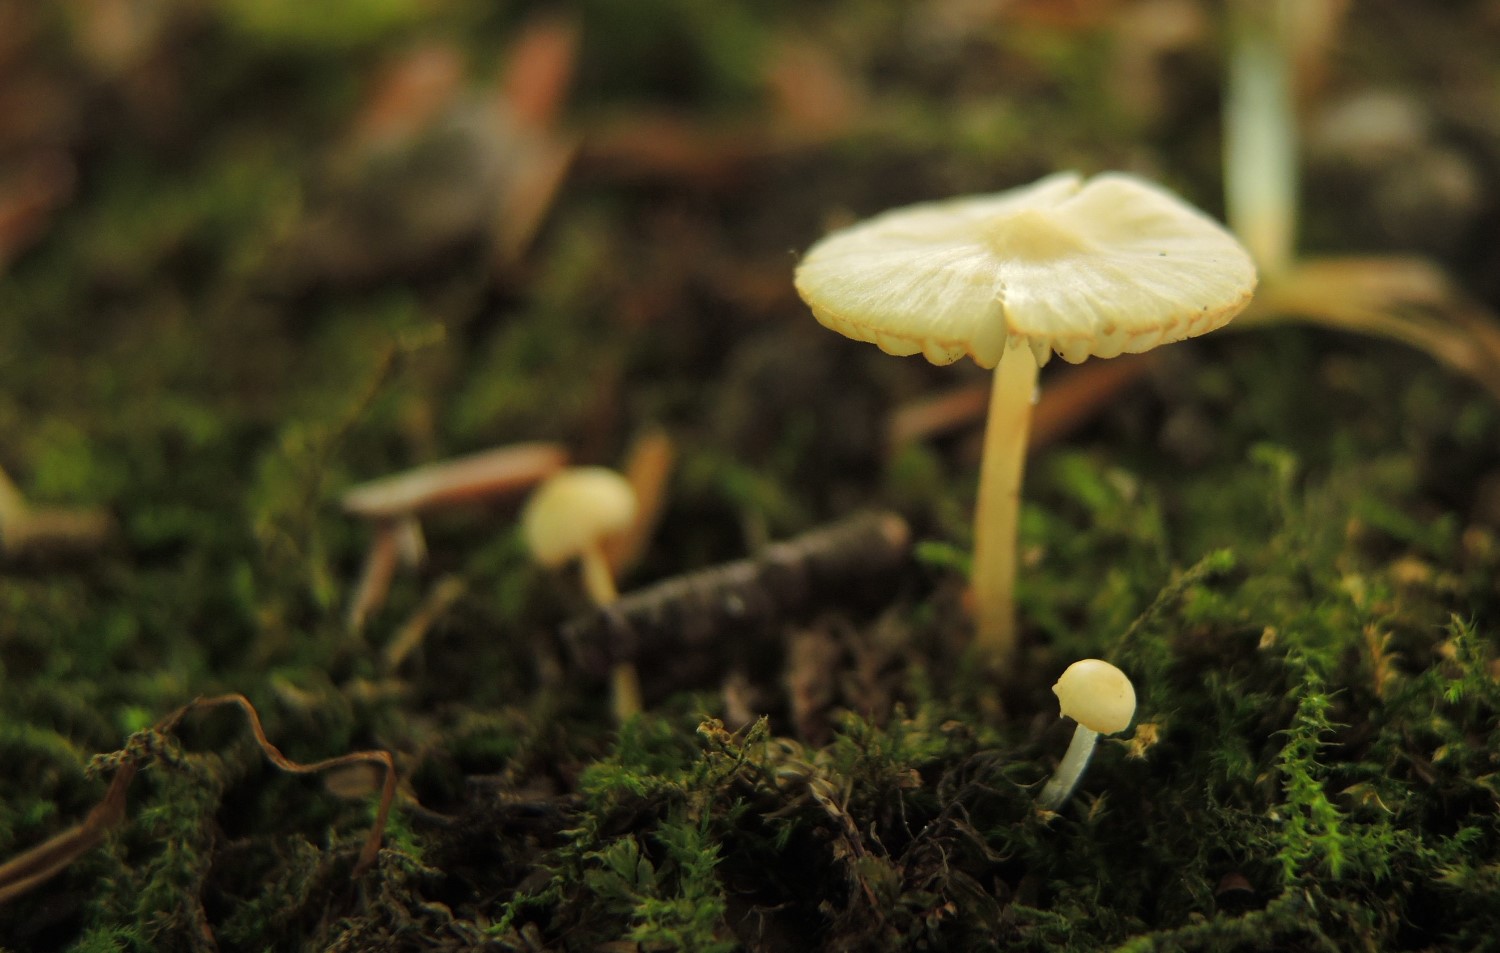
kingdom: Fungi
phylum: Basidiomycota
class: Agaricomycetes
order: Agaricales
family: Mycenaceae
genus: Atheniella
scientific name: Atheniella flavoalba
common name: gulhvid huesvamp
